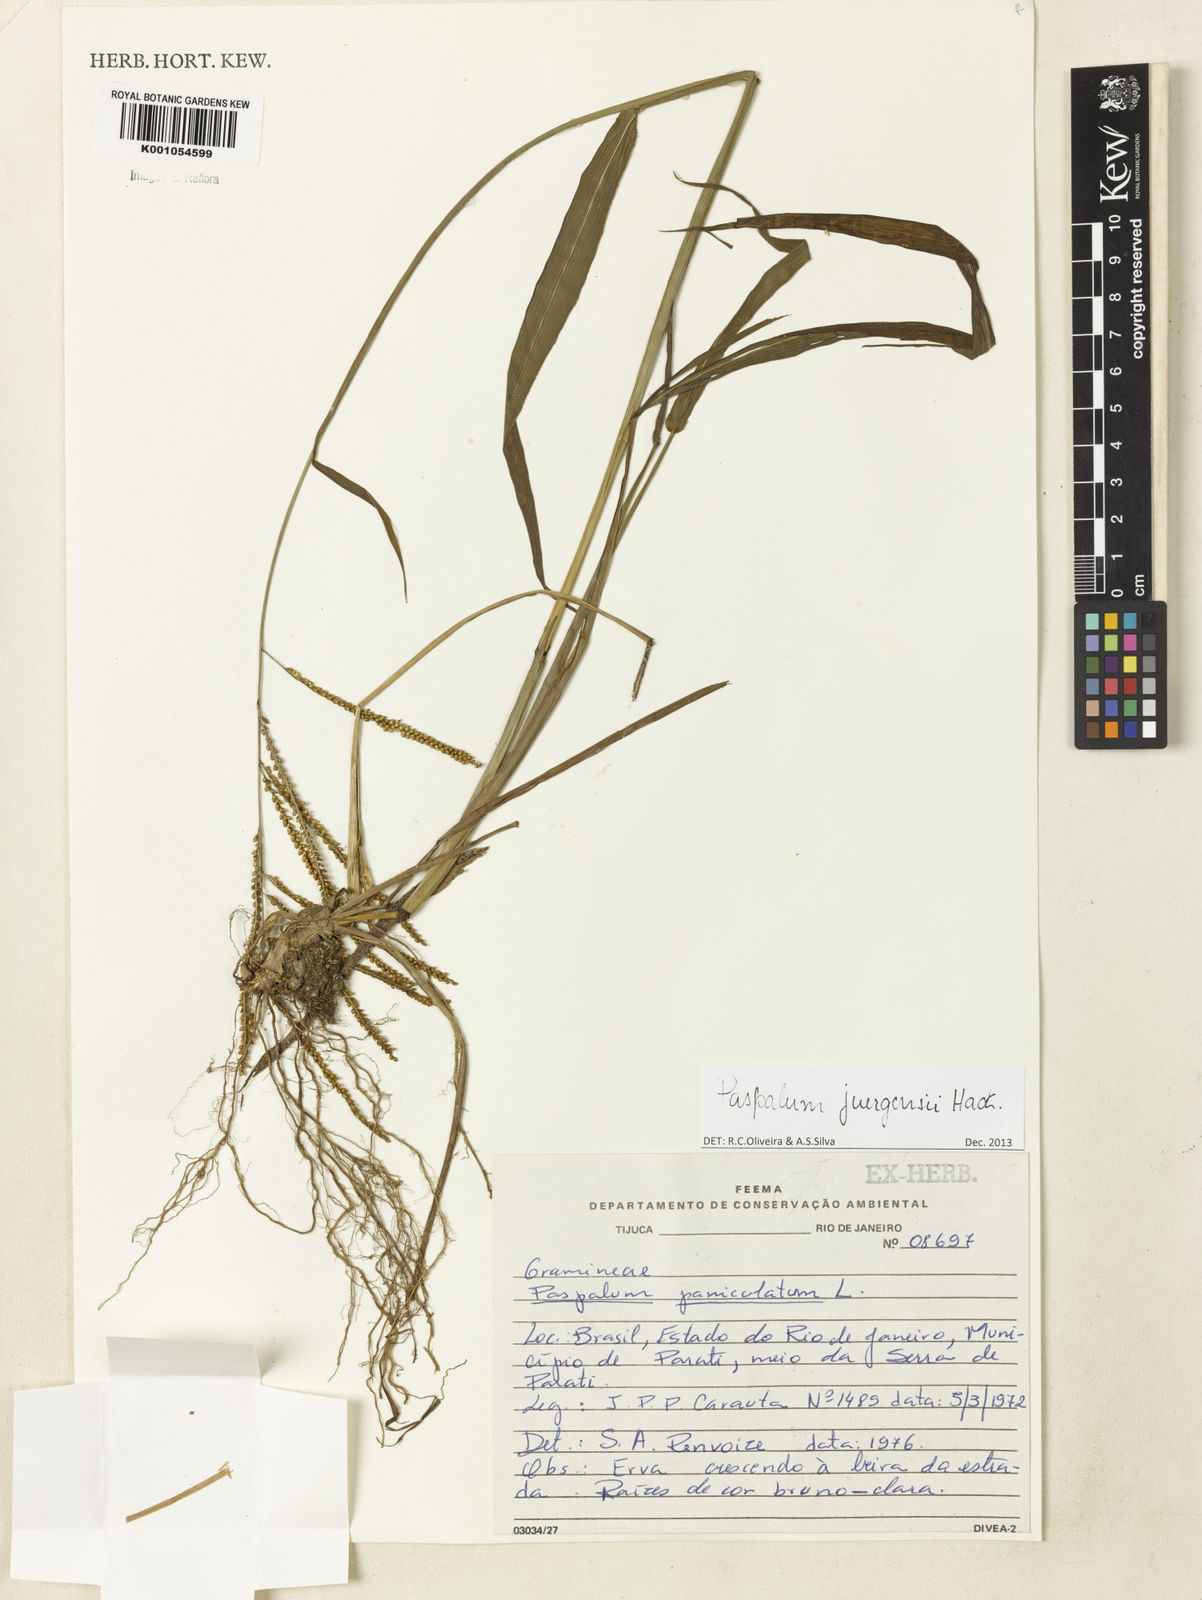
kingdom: Plantae
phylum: Tracheophyta
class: Liliopsida
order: Poales
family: Poaceae
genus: Paspalum
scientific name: Paspalum juergensii
